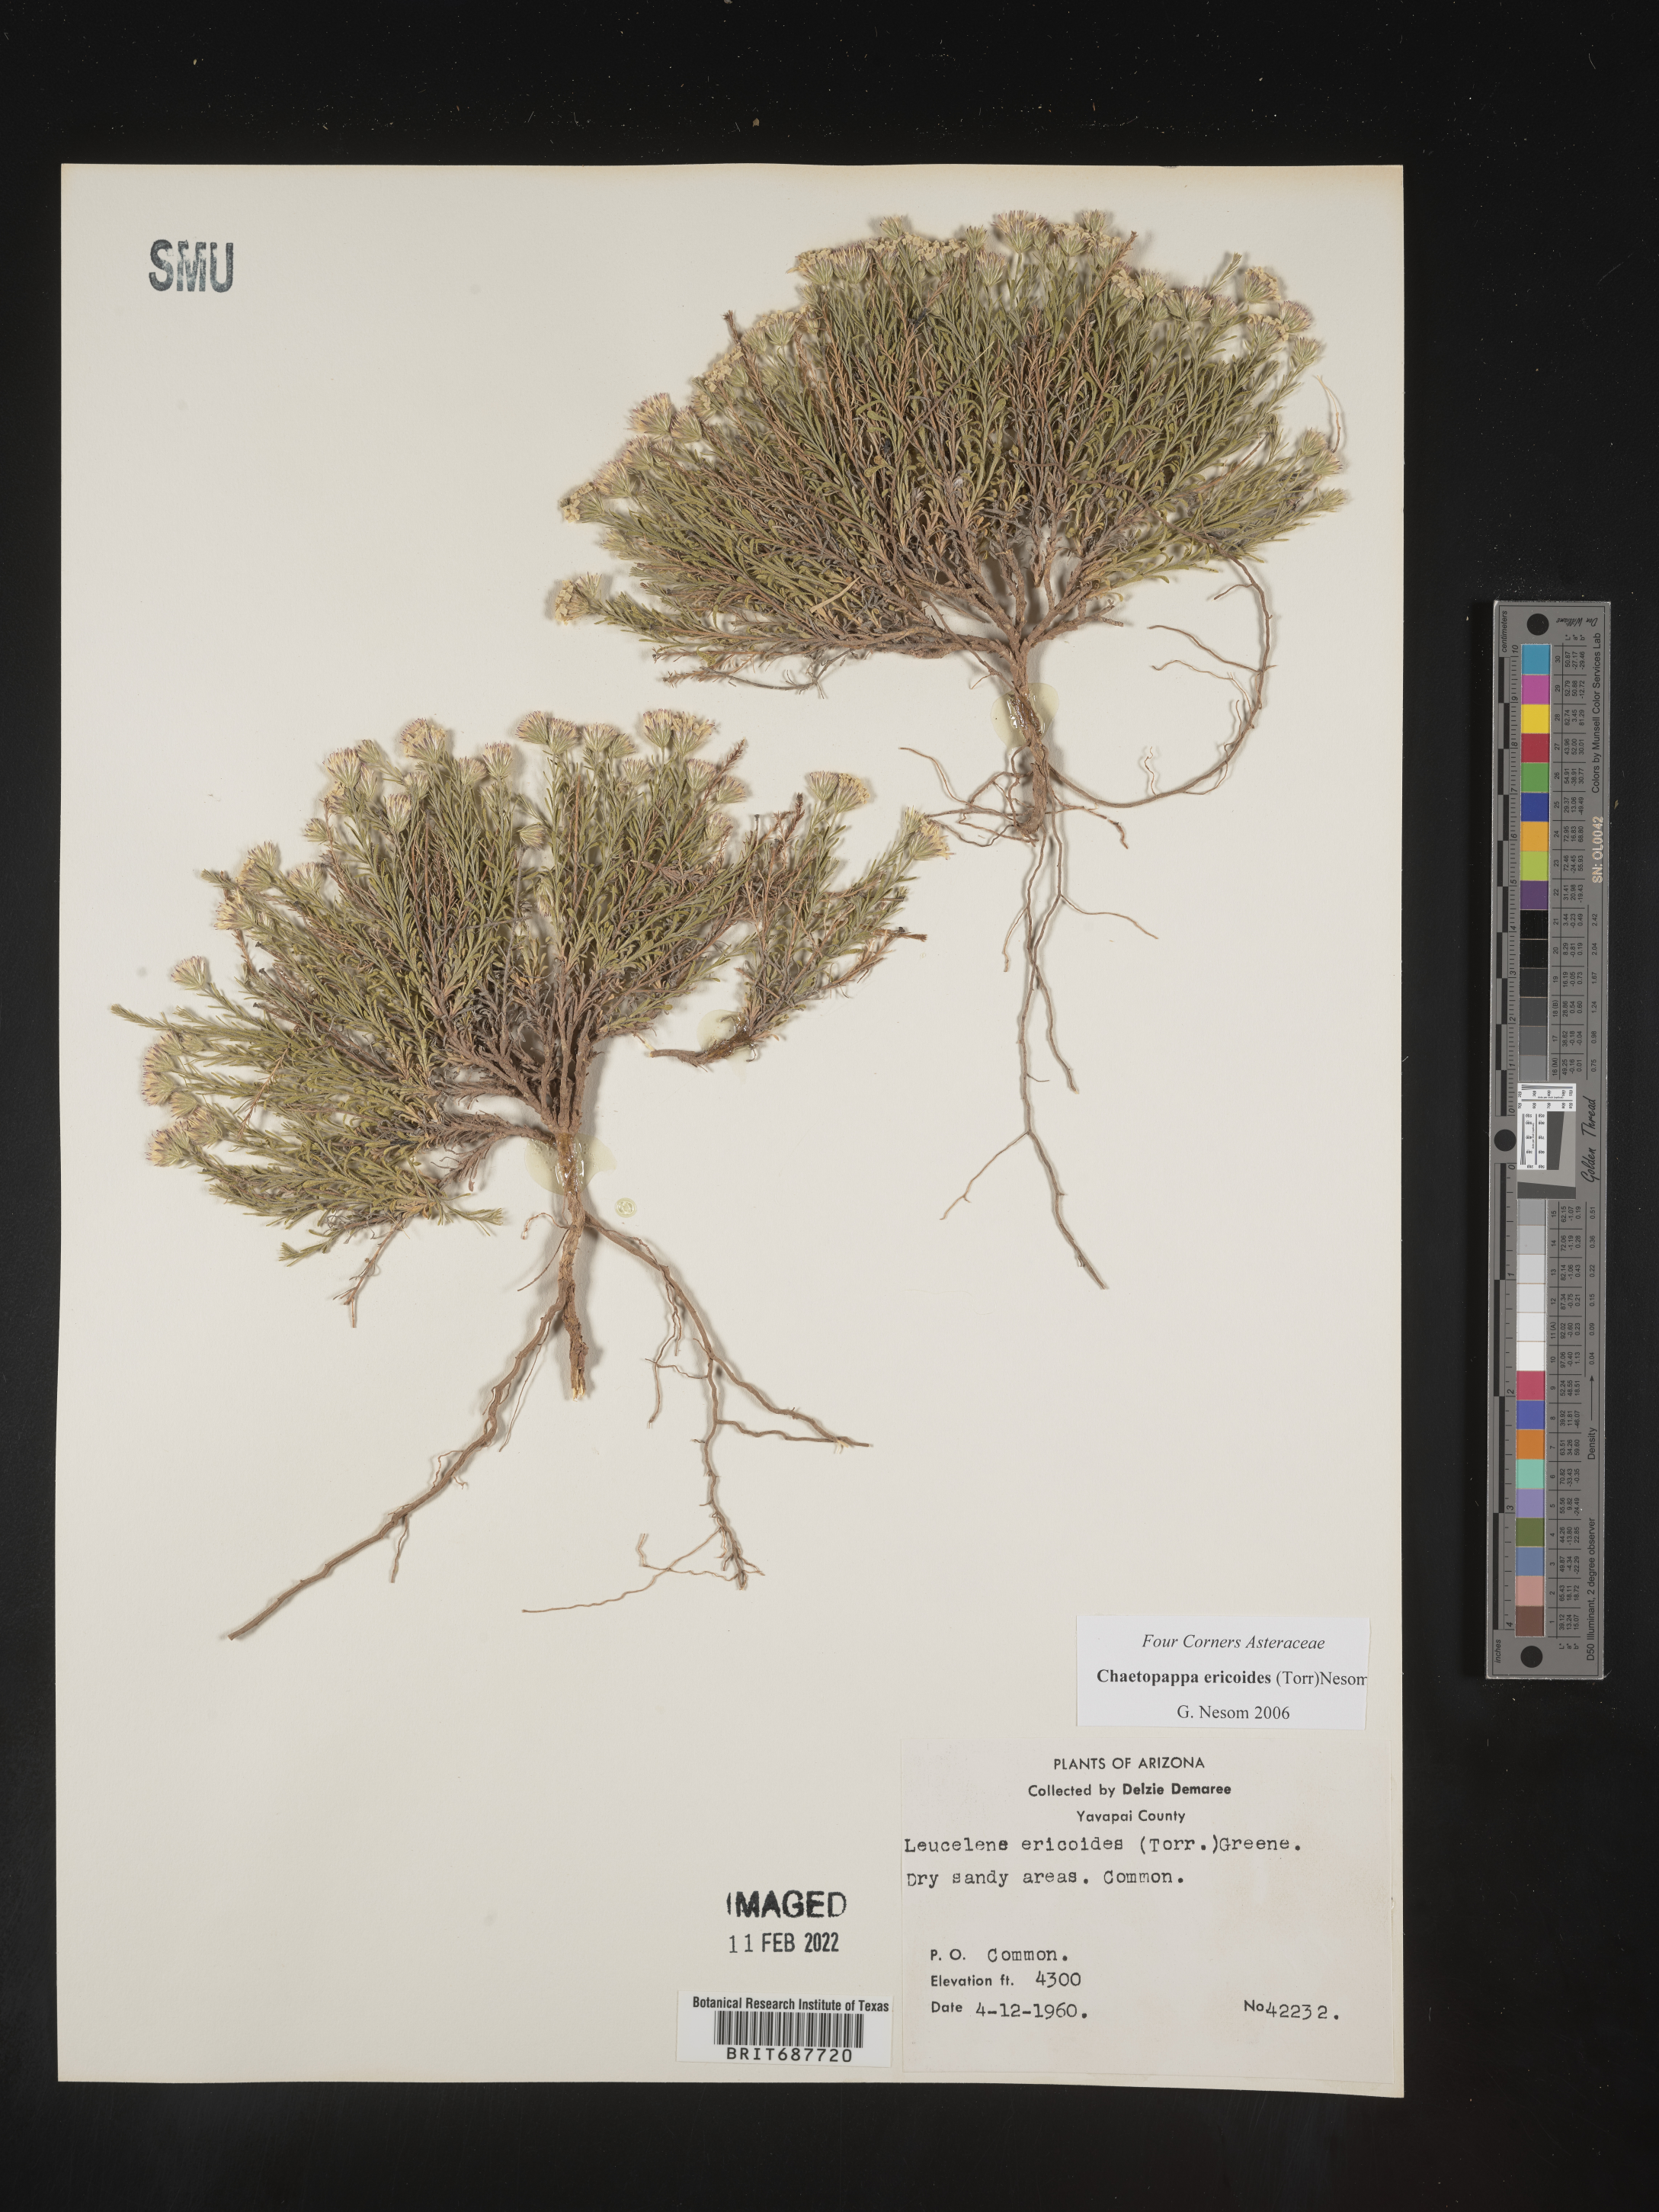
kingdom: Plantae
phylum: Tracheophyta
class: Magnoliopsida
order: Asterales
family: Asteraceae
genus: Chaetopappa
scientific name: Chaetopappa ericoides
